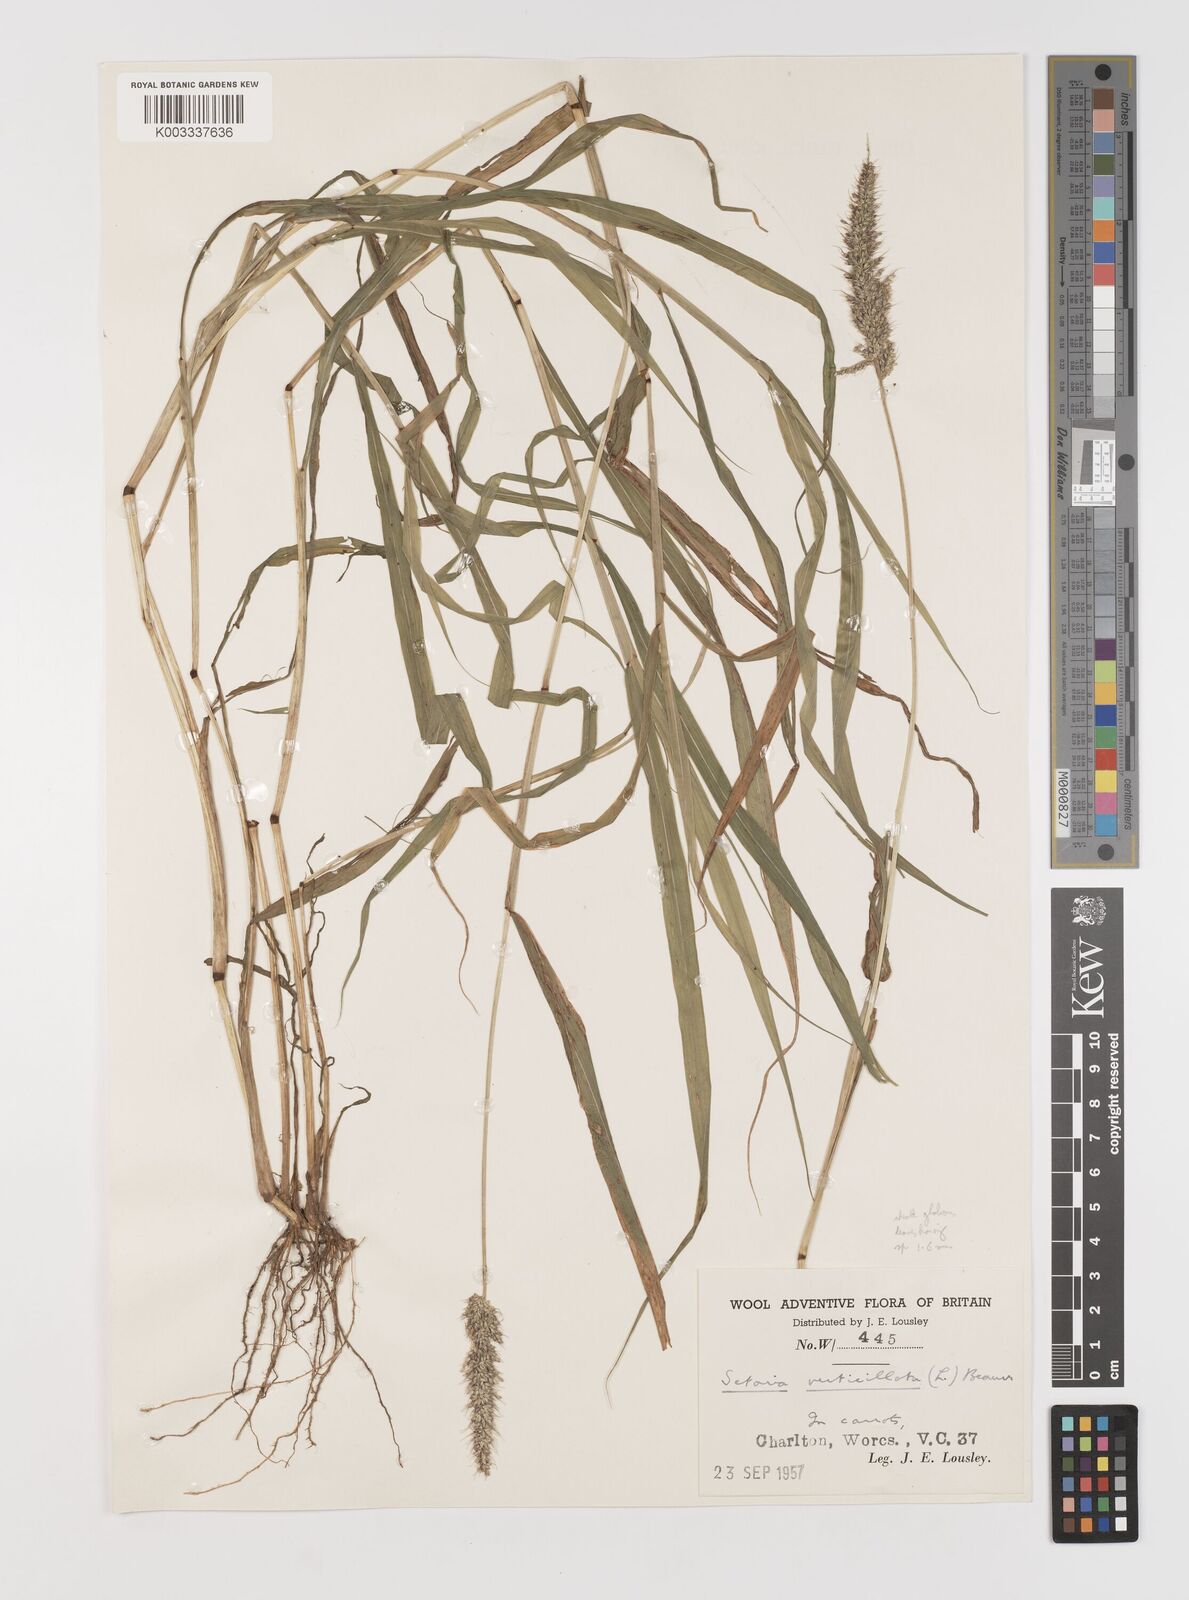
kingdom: Plantae
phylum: Tracheophyta
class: Liliopsida
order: Poales
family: Poaceae
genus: Setaria
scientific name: Setaria verticillata
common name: Hooked bristlegrass
